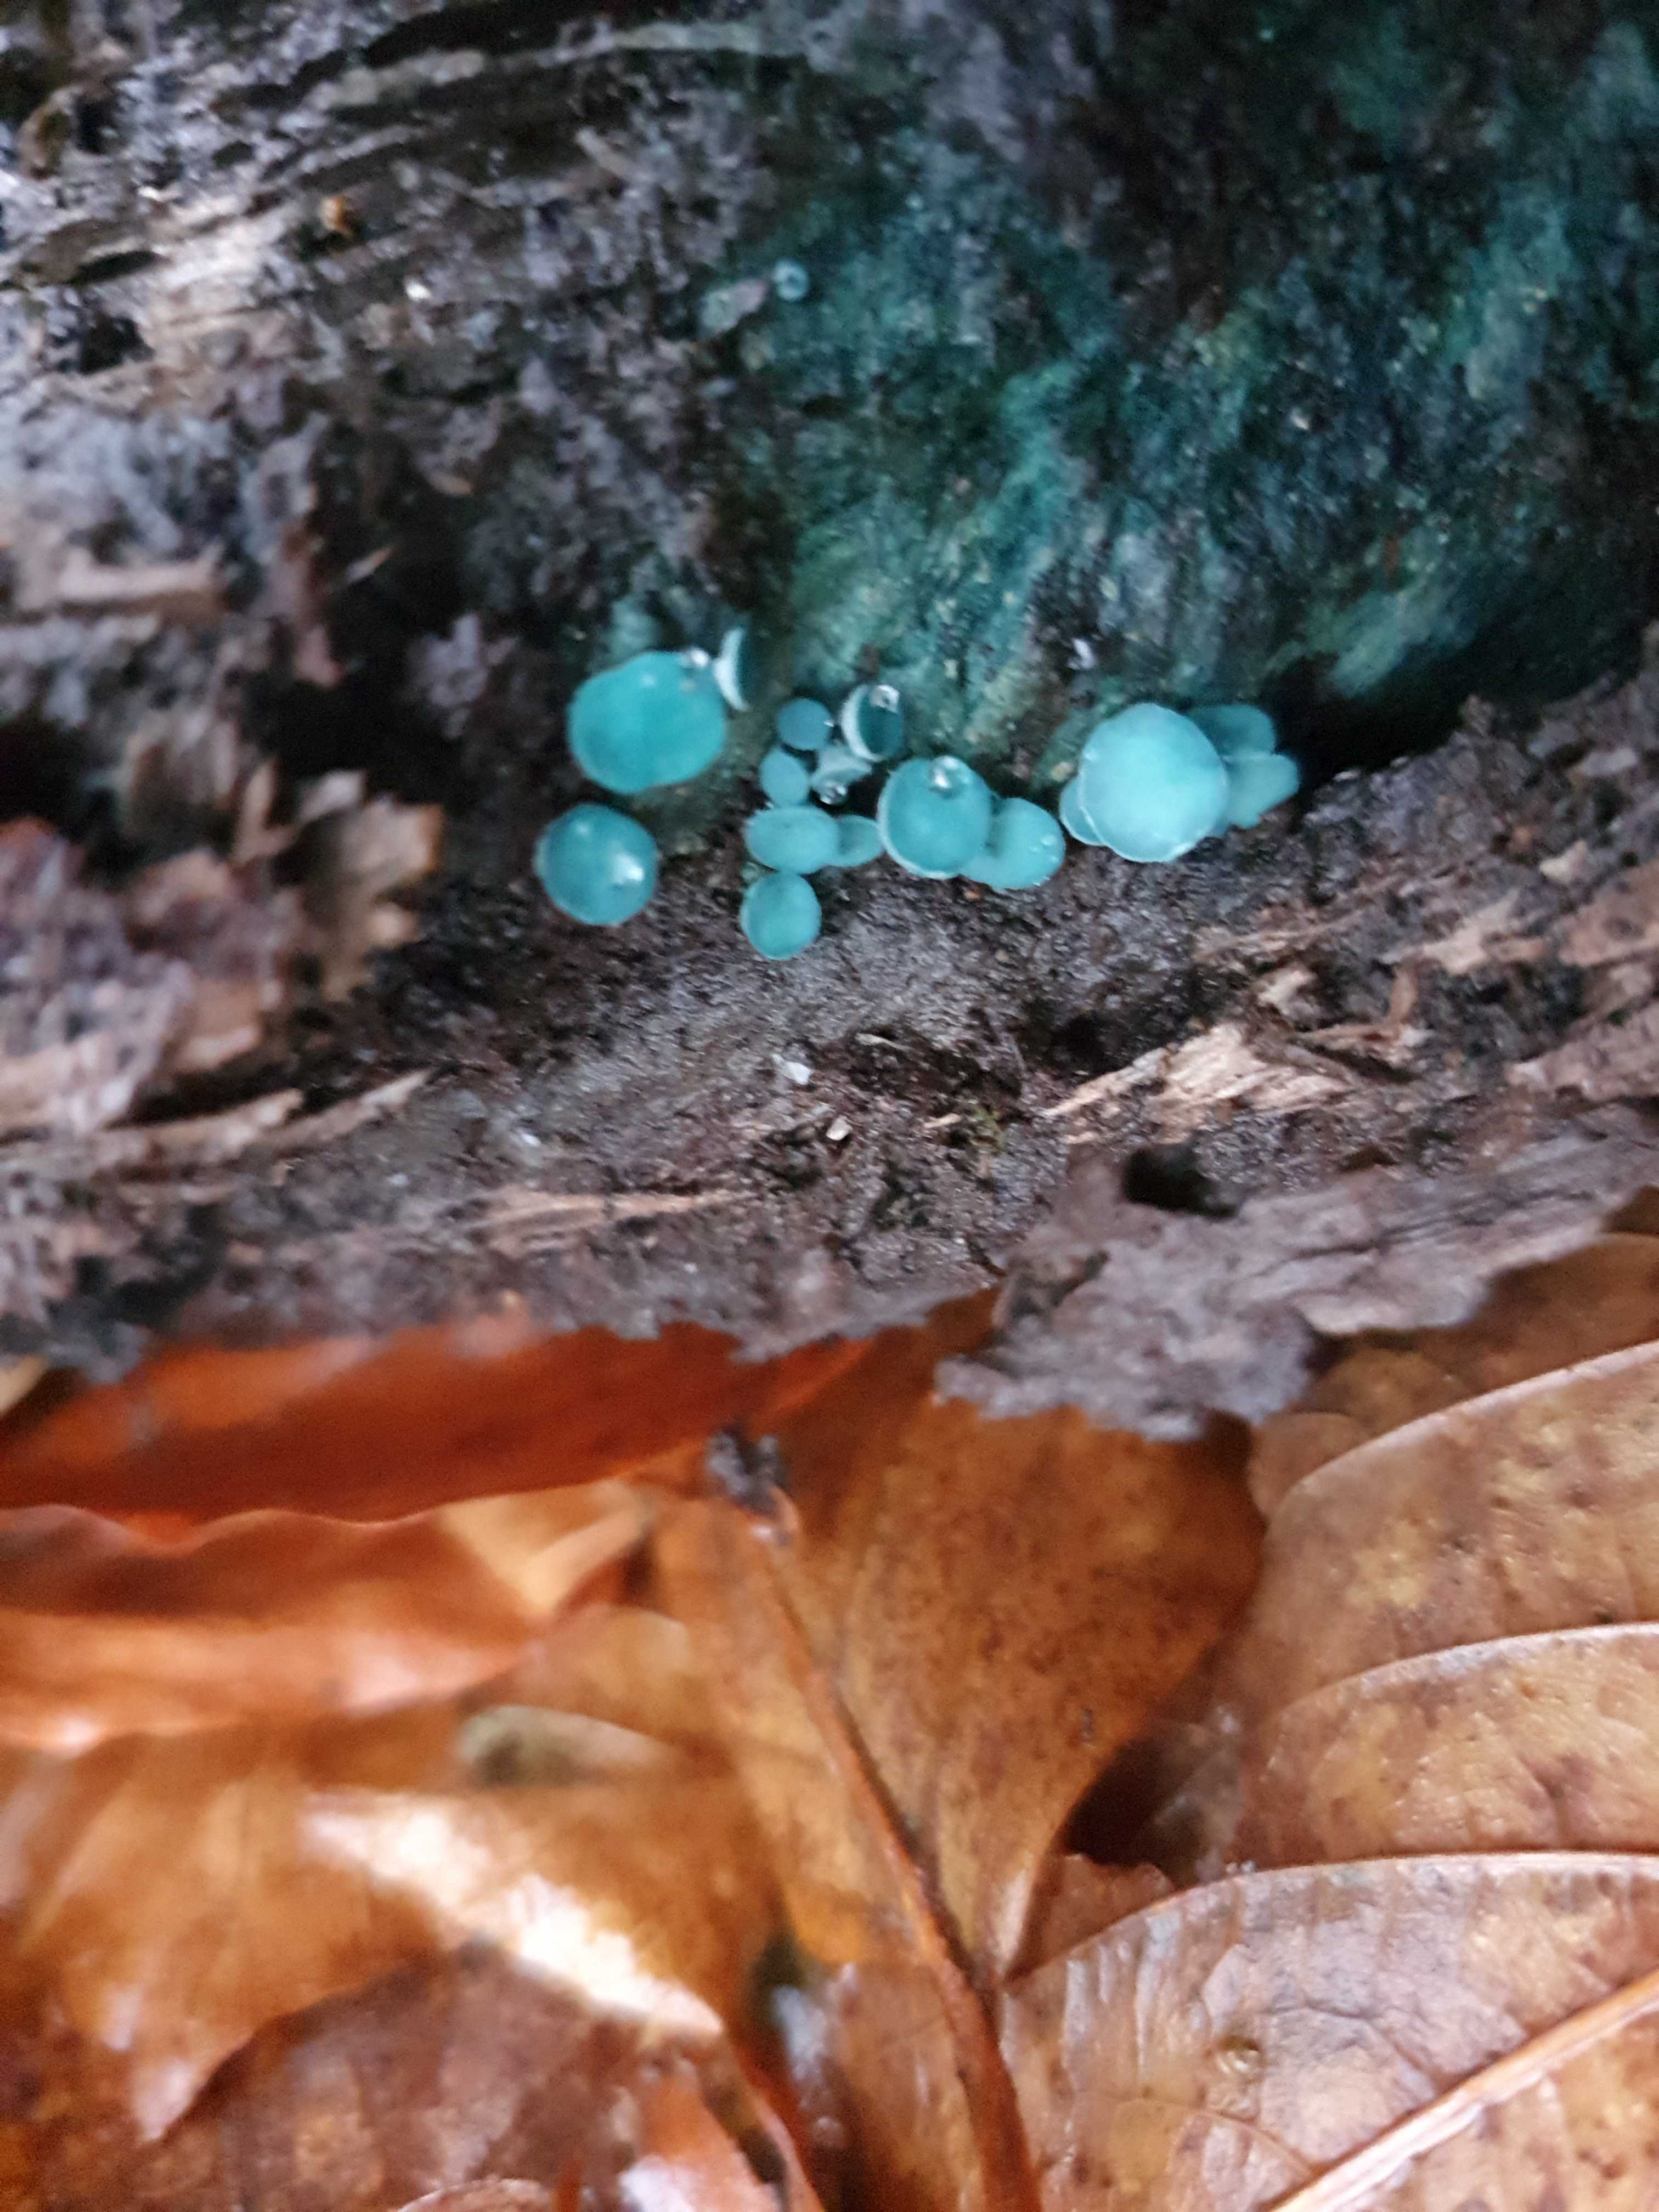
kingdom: Fungi
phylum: Ascomycota
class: Leotiomycetes
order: Helotiales
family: Chlorociboriaceae
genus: Chlorociboria
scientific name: Chlorociboria aeruginascens
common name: almindelig grønskive
